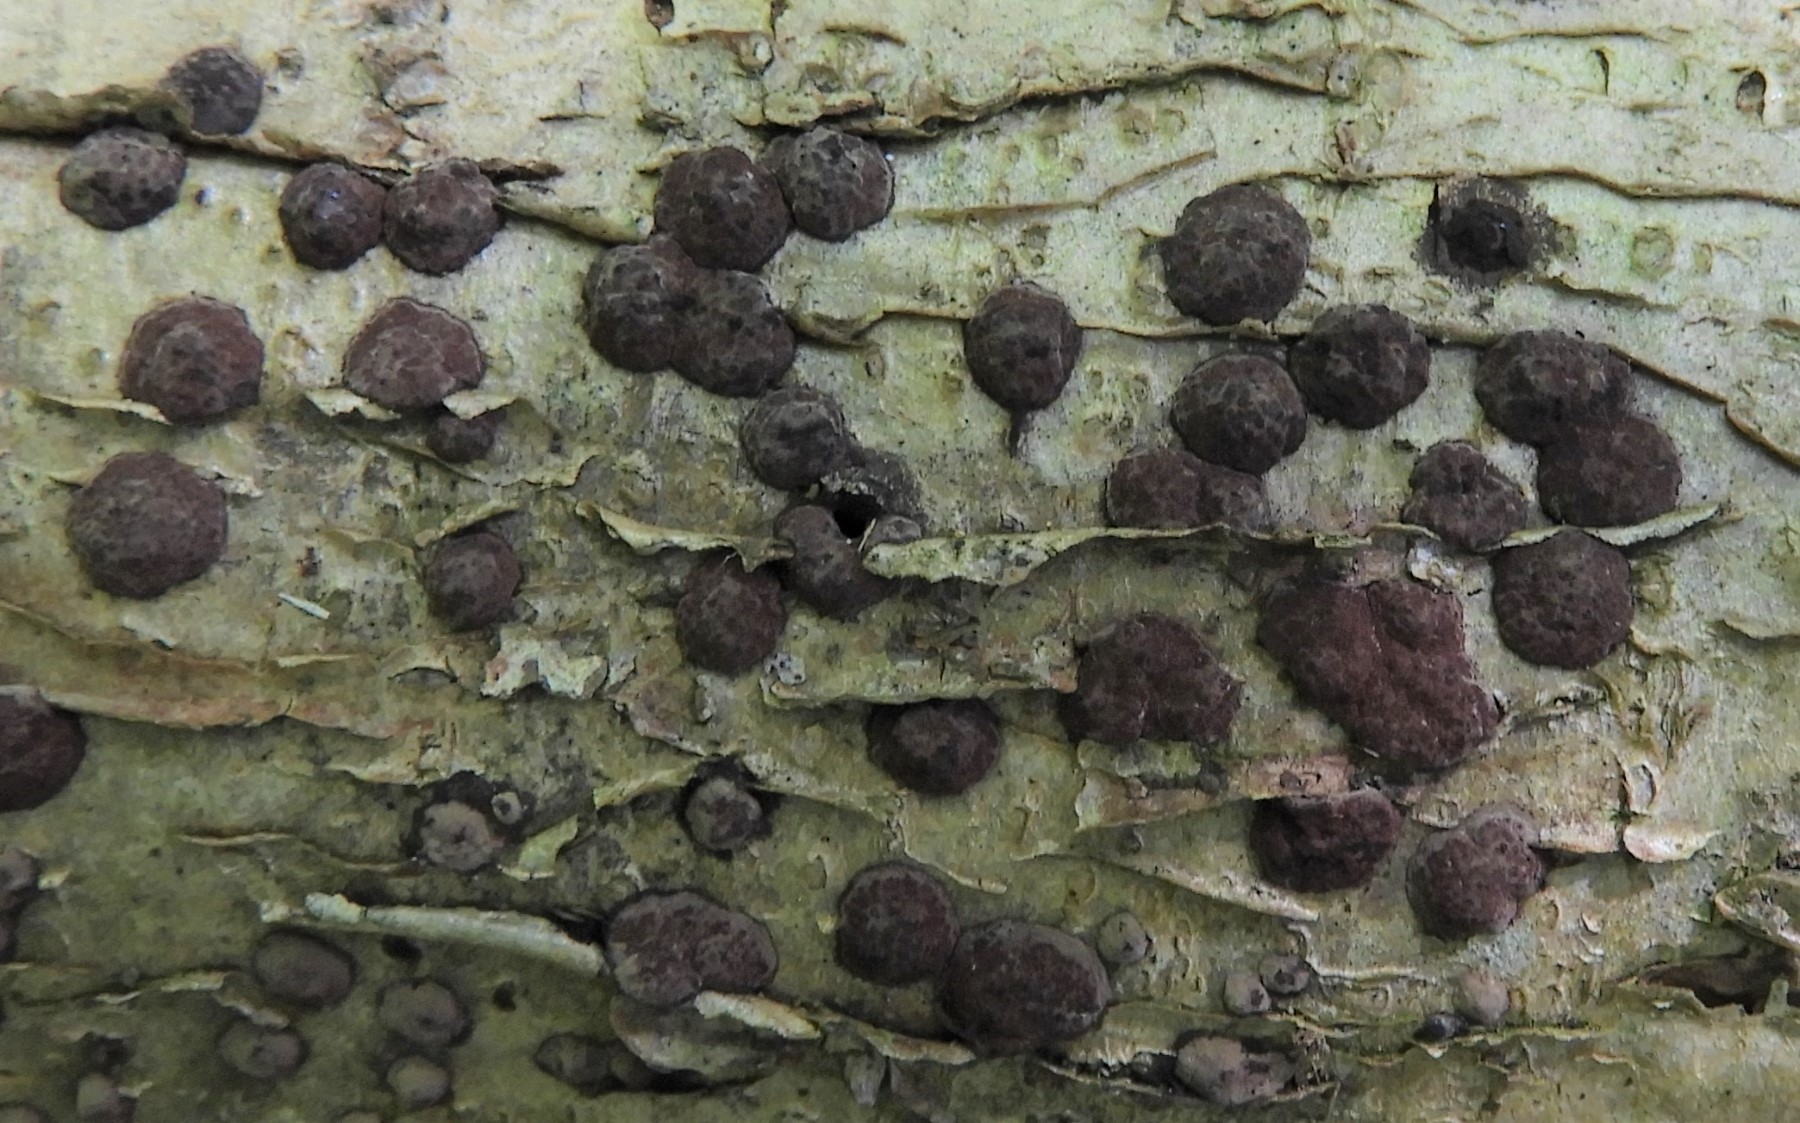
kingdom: Fungi
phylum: Ascomycota
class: Sordariomycetes
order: Xylariales
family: Hypoxylaceae
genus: Hypoxylon
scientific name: Hypoxylon fuscum
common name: kegleformet kulbær
